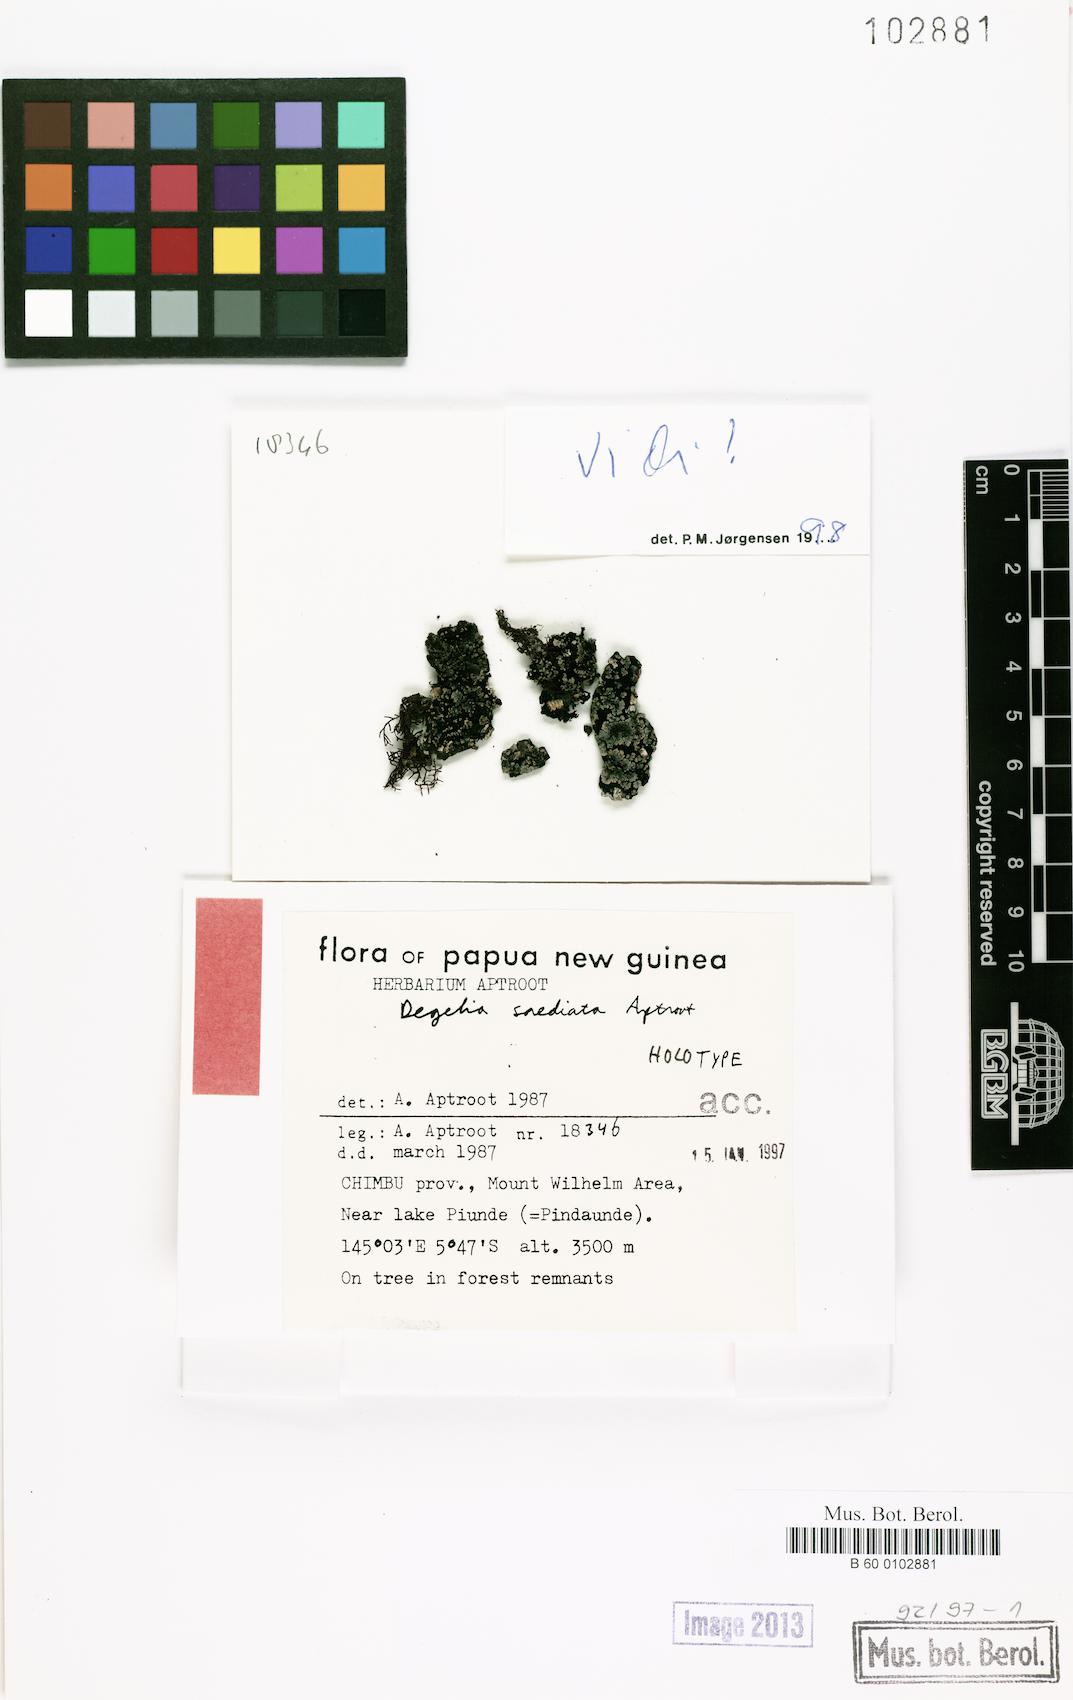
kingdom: Fungi
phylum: Ascomycota
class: Lecanoromycetes
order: Peltigerales
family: Pannariaceae
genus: Degelia
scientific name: Degelia
